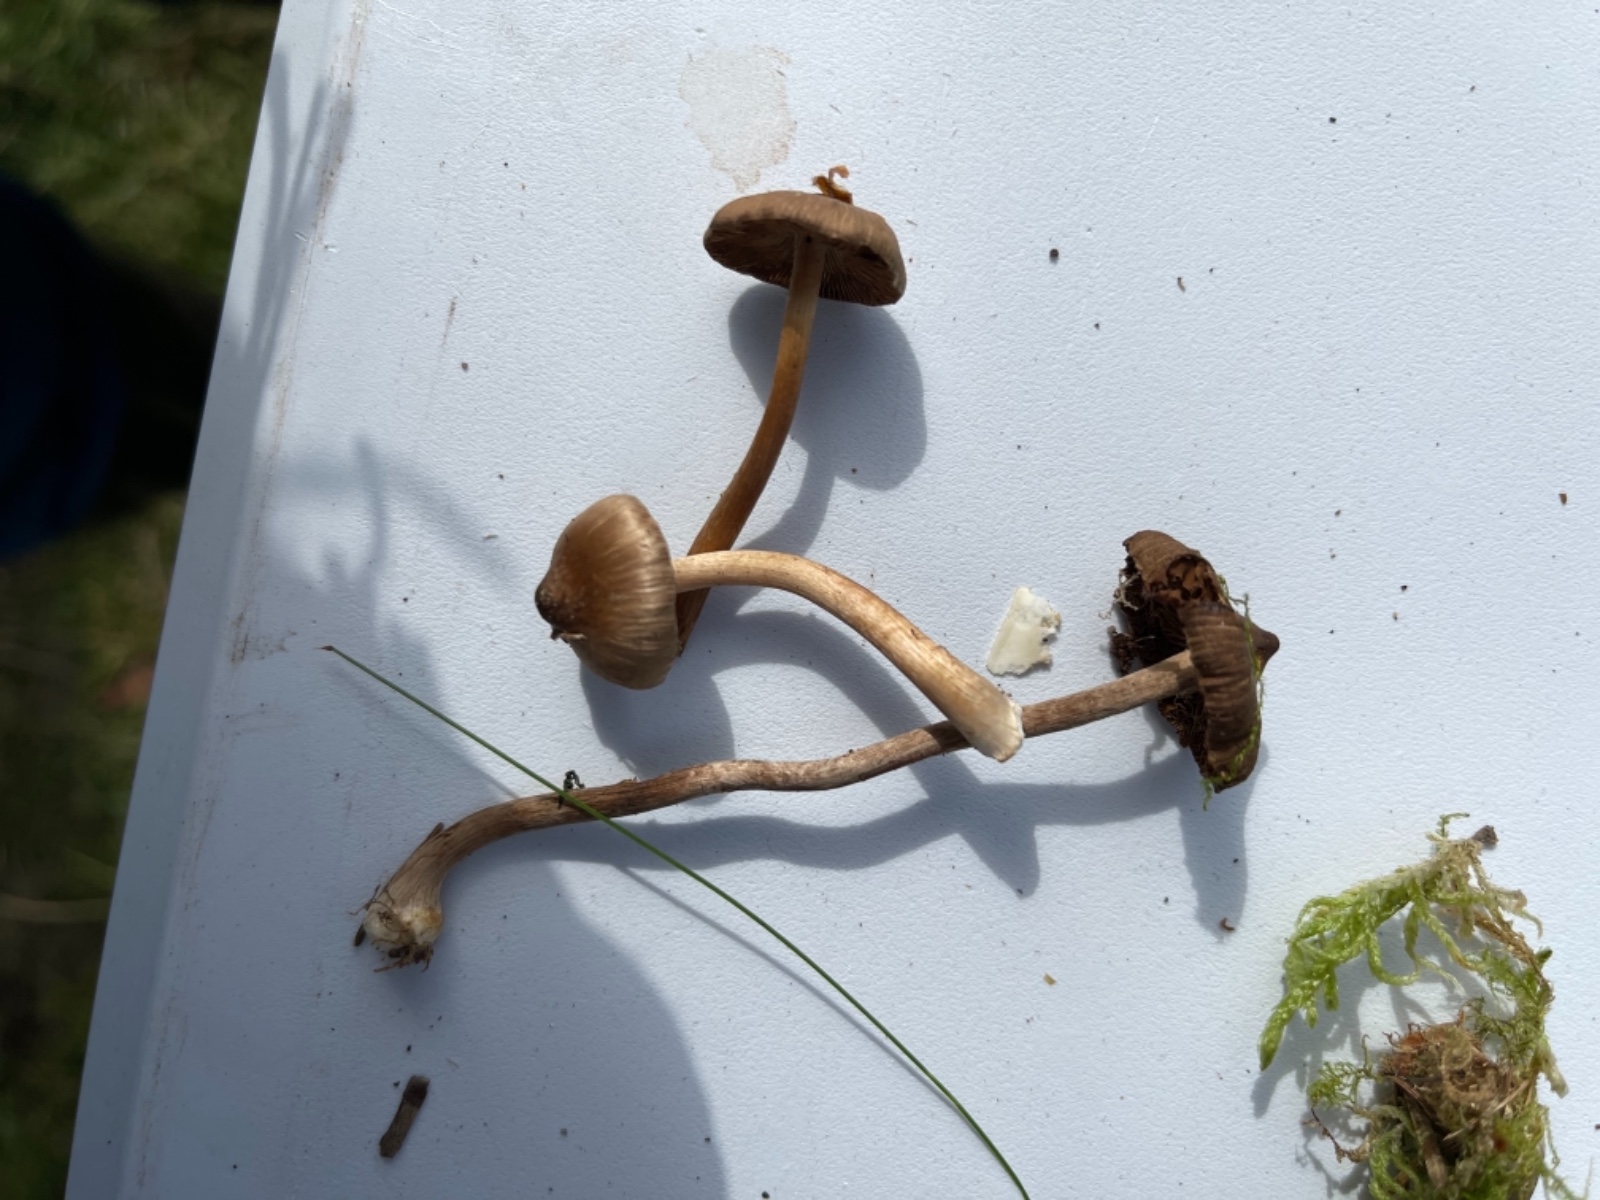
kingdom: Fungi
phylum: Basidiomycota
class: Agaricomycetes
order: Agaricales
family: Inocybaceae
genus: Inocybe
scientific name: Inocybe napipes
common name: roeknoldet trævlhat
